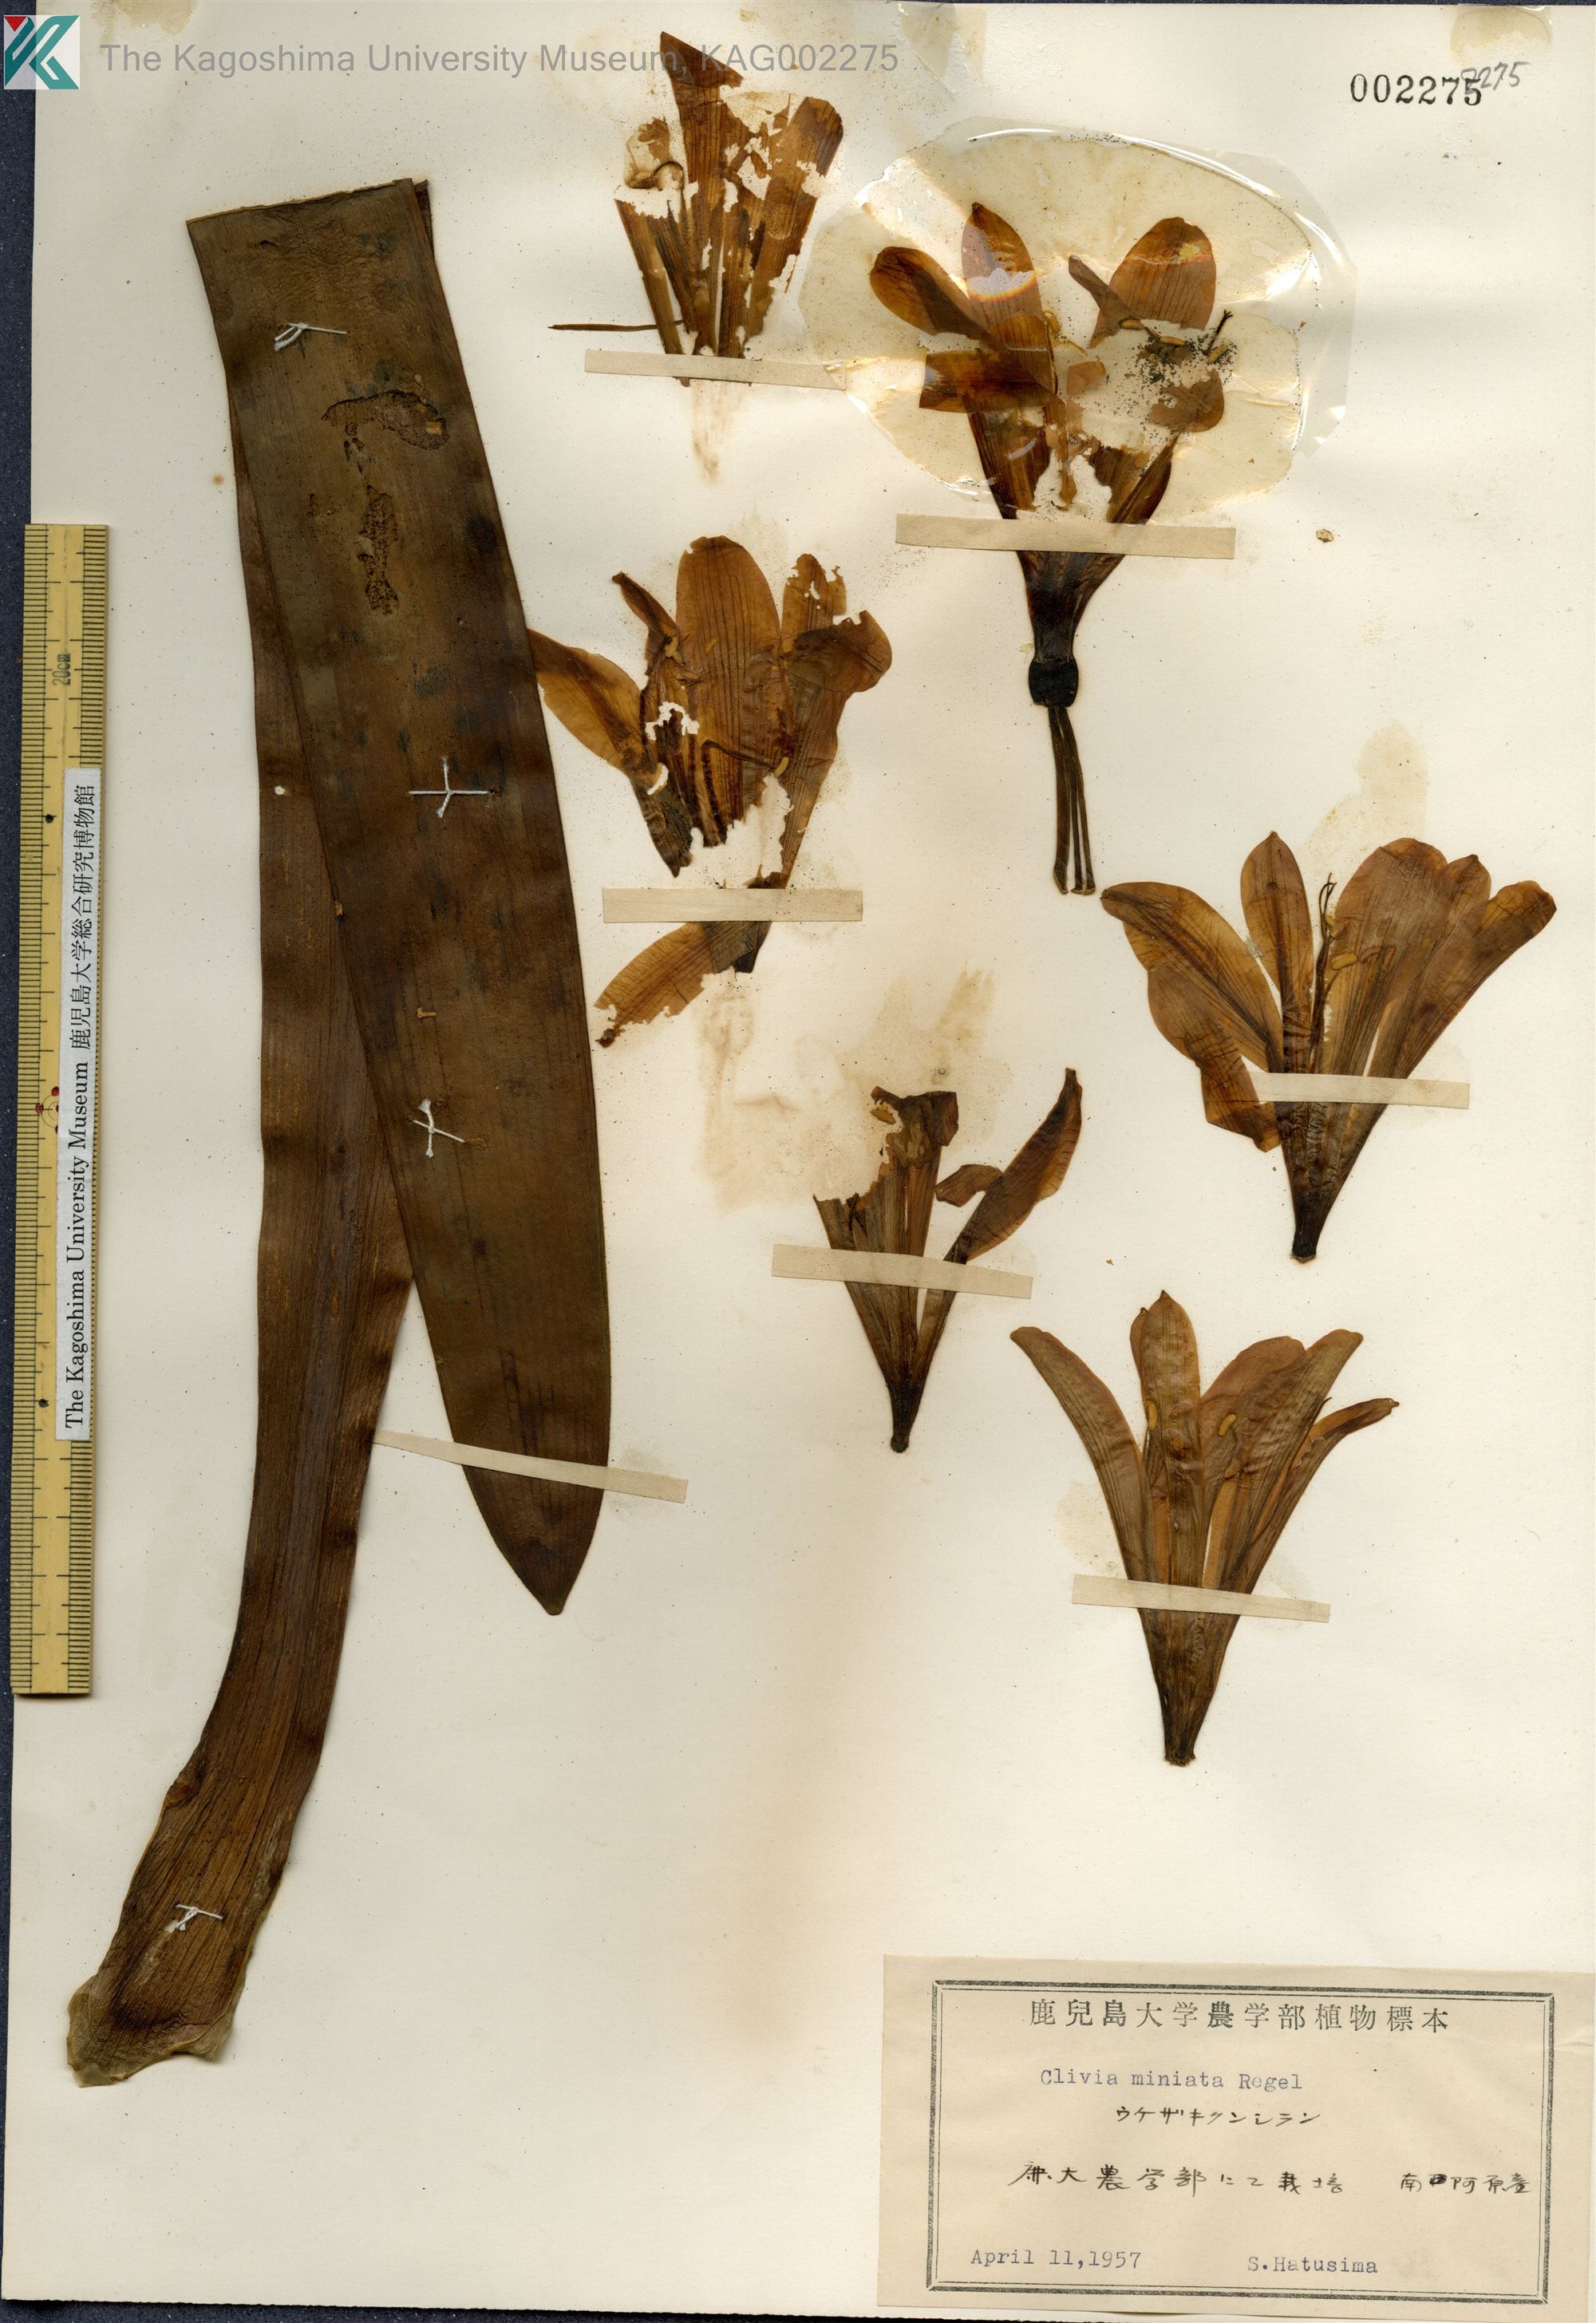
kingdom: Plantae
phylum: Tracheophyta
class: Liliopsida
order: Asparagales
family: Amaryllidaceae
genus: Clivia
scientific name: Clivia miniata
